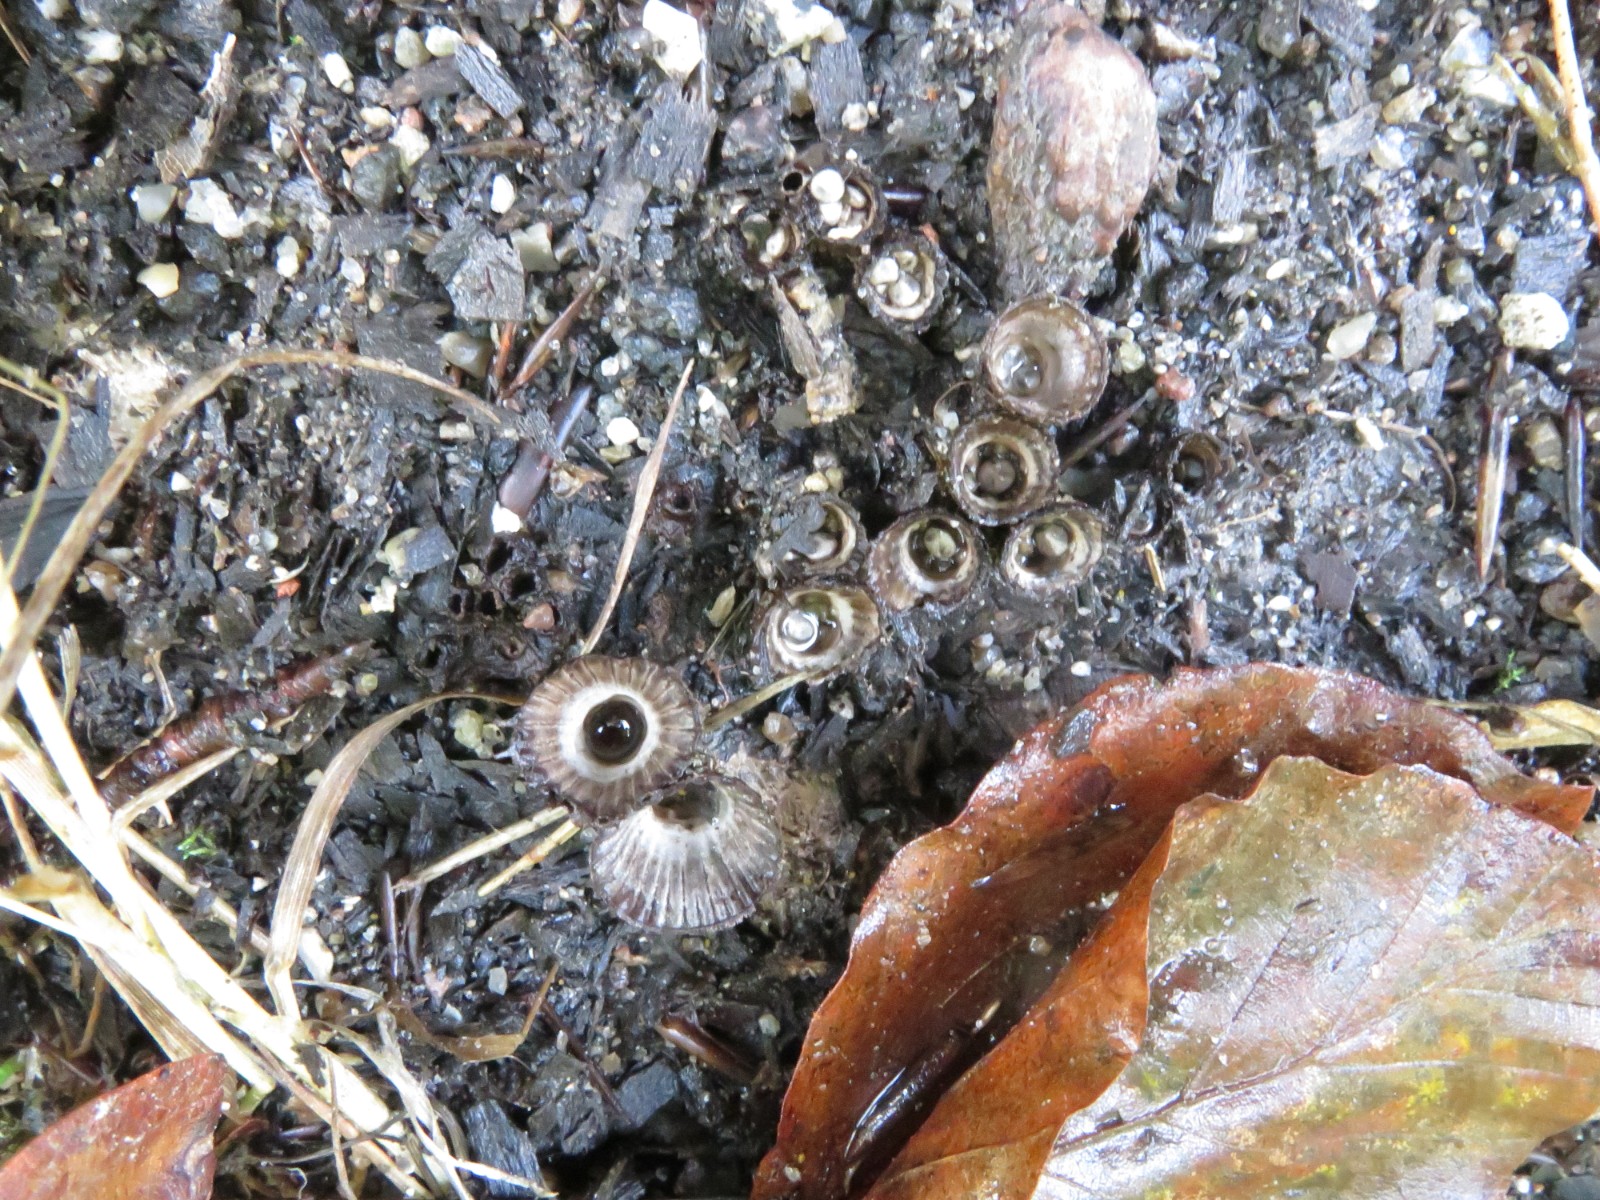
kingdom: Fungi
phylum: Basidiomycota
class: Agaricomycetes
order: Agaricales
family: Agaricaceae
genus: Cyathus
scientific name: Cyathus striatus
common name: stribet redesvamp
